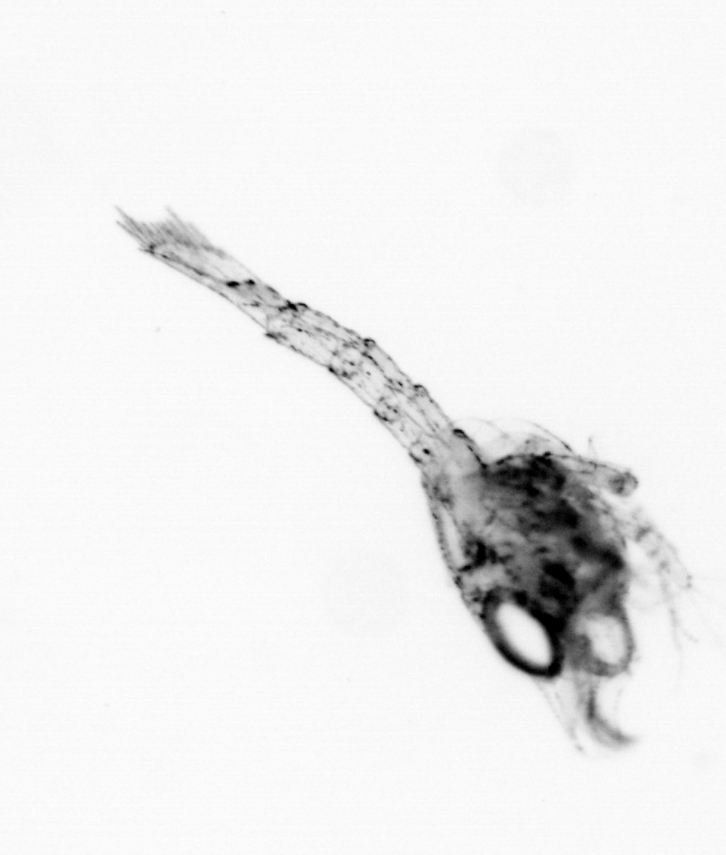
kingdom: Animalia
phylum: Arthropoda
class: Malacostraca
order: Decapoda
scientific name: Decapoda
